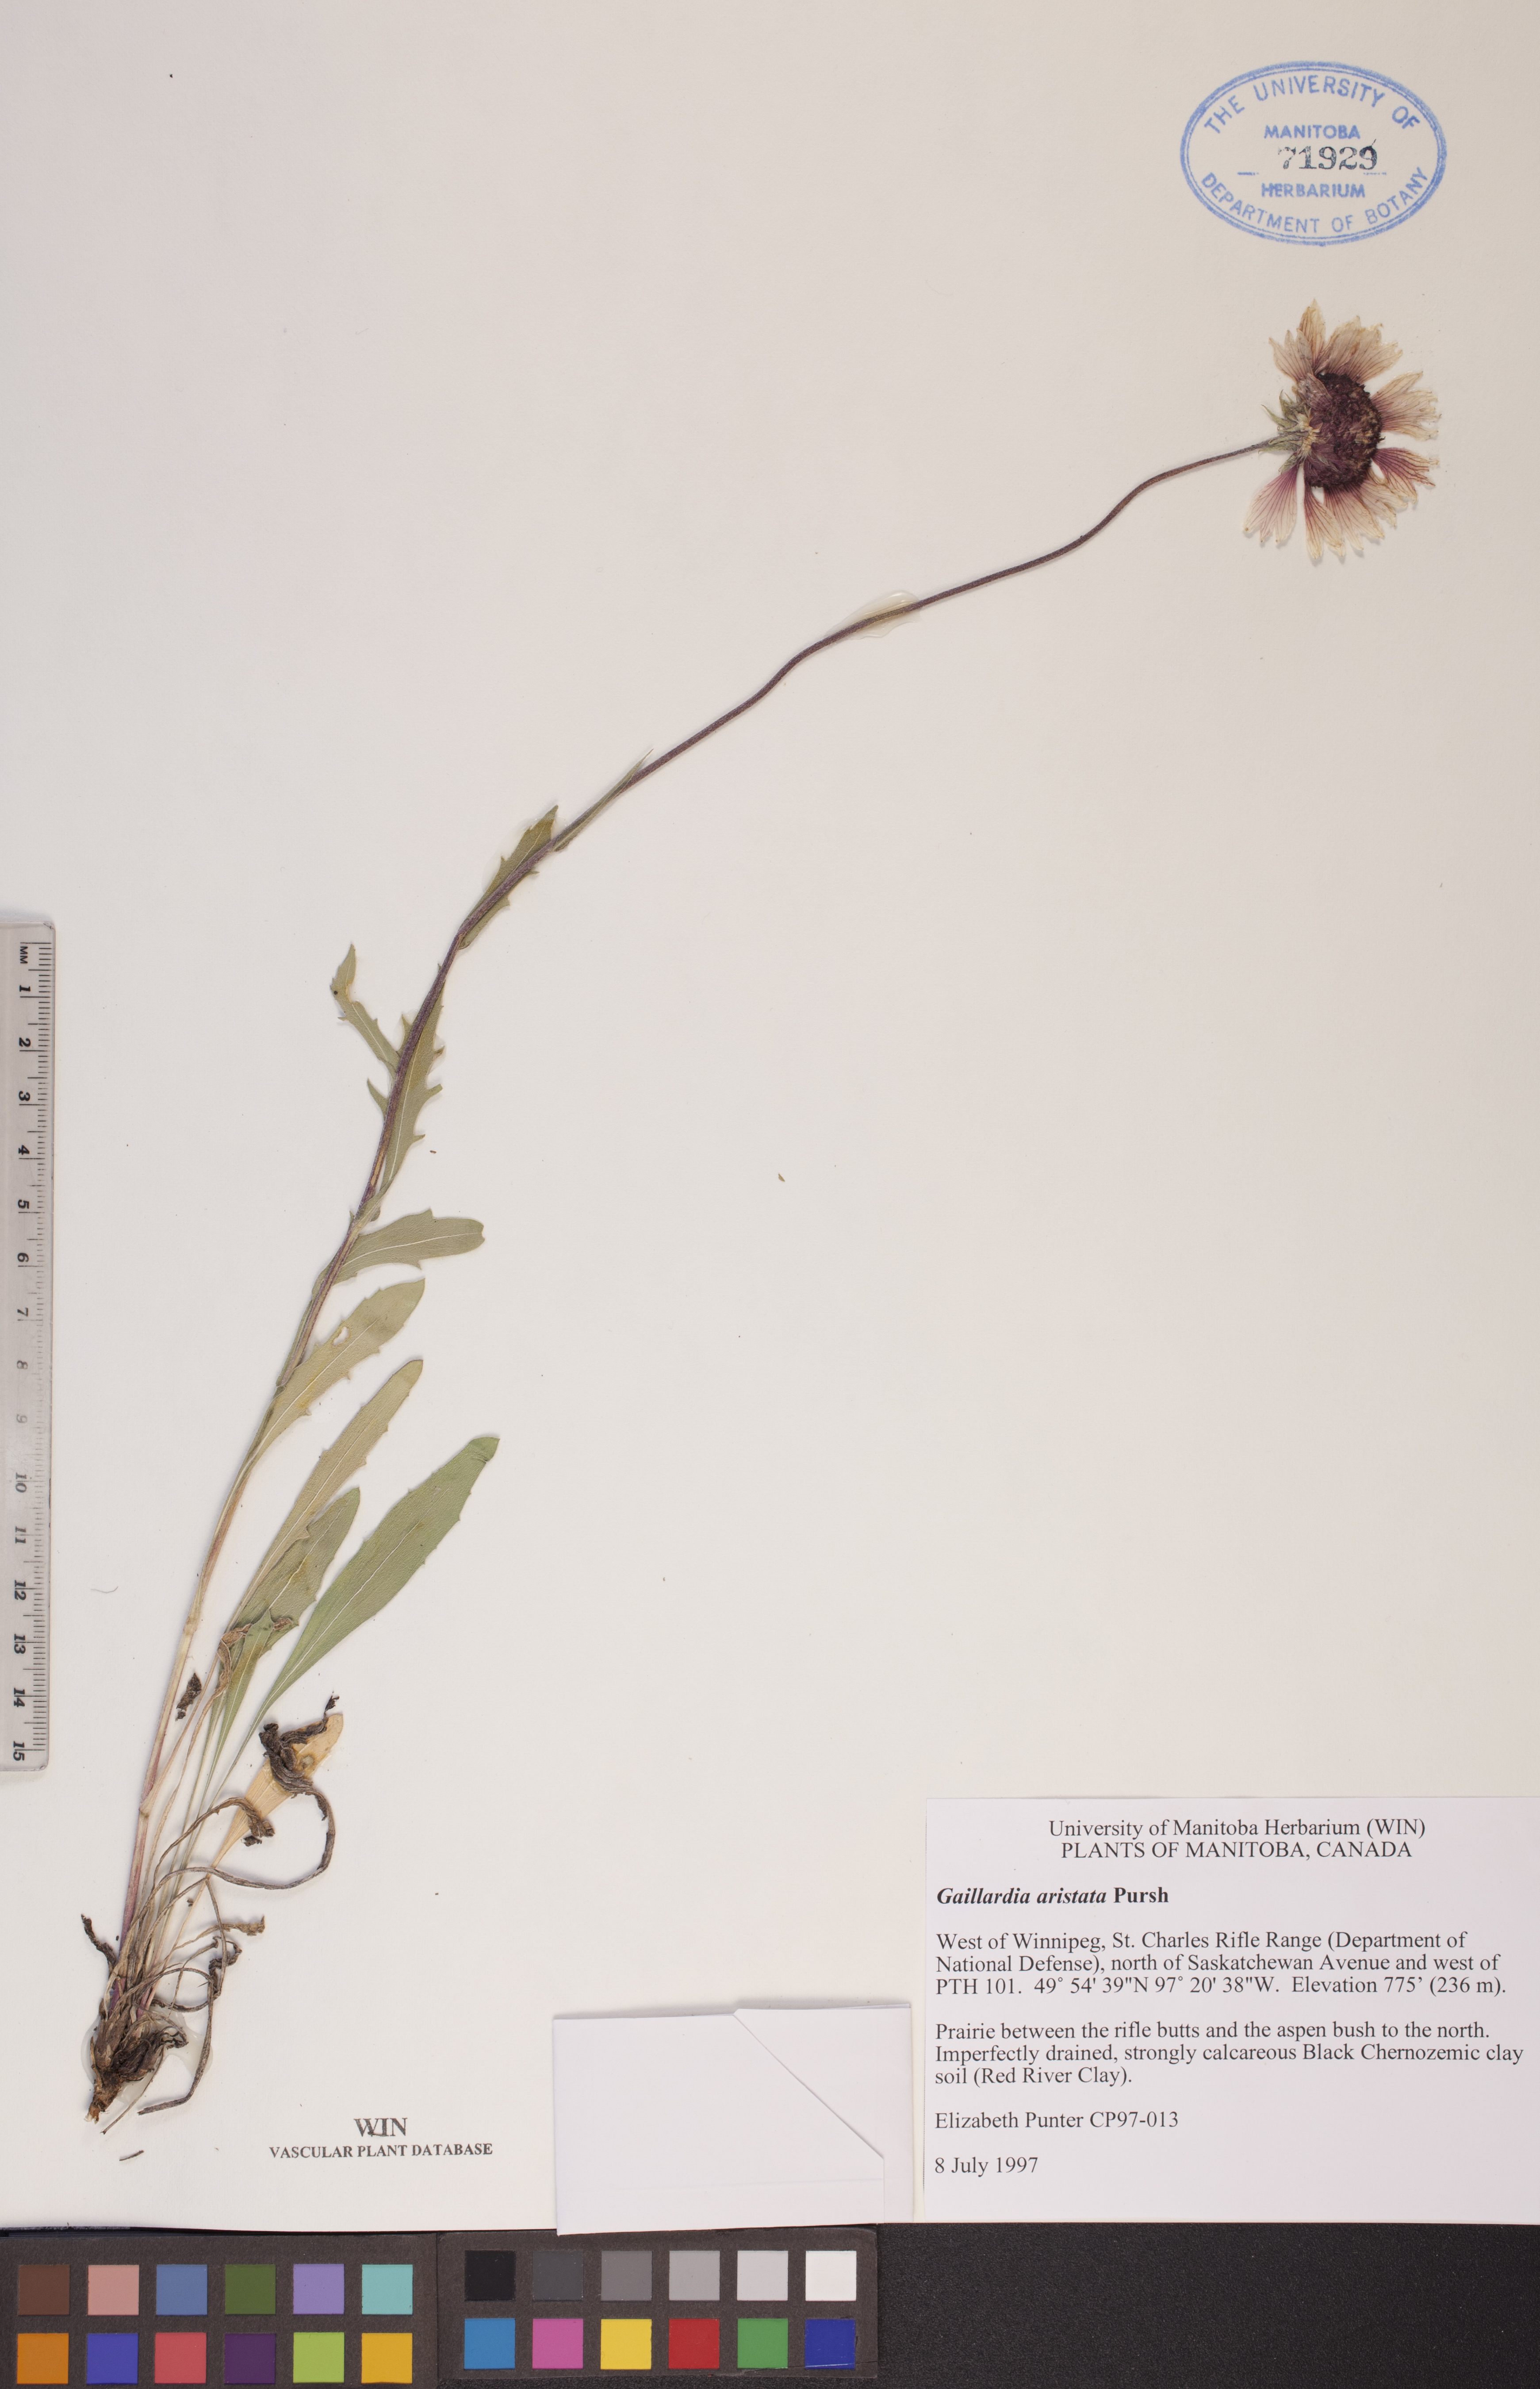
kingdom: Plantae
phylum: Tracheophyta
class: Magnoliopsida
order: Asterales
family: Asteraceae
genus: Gaillardia
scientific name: Gaillardia aristata
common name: Blanket-flower
